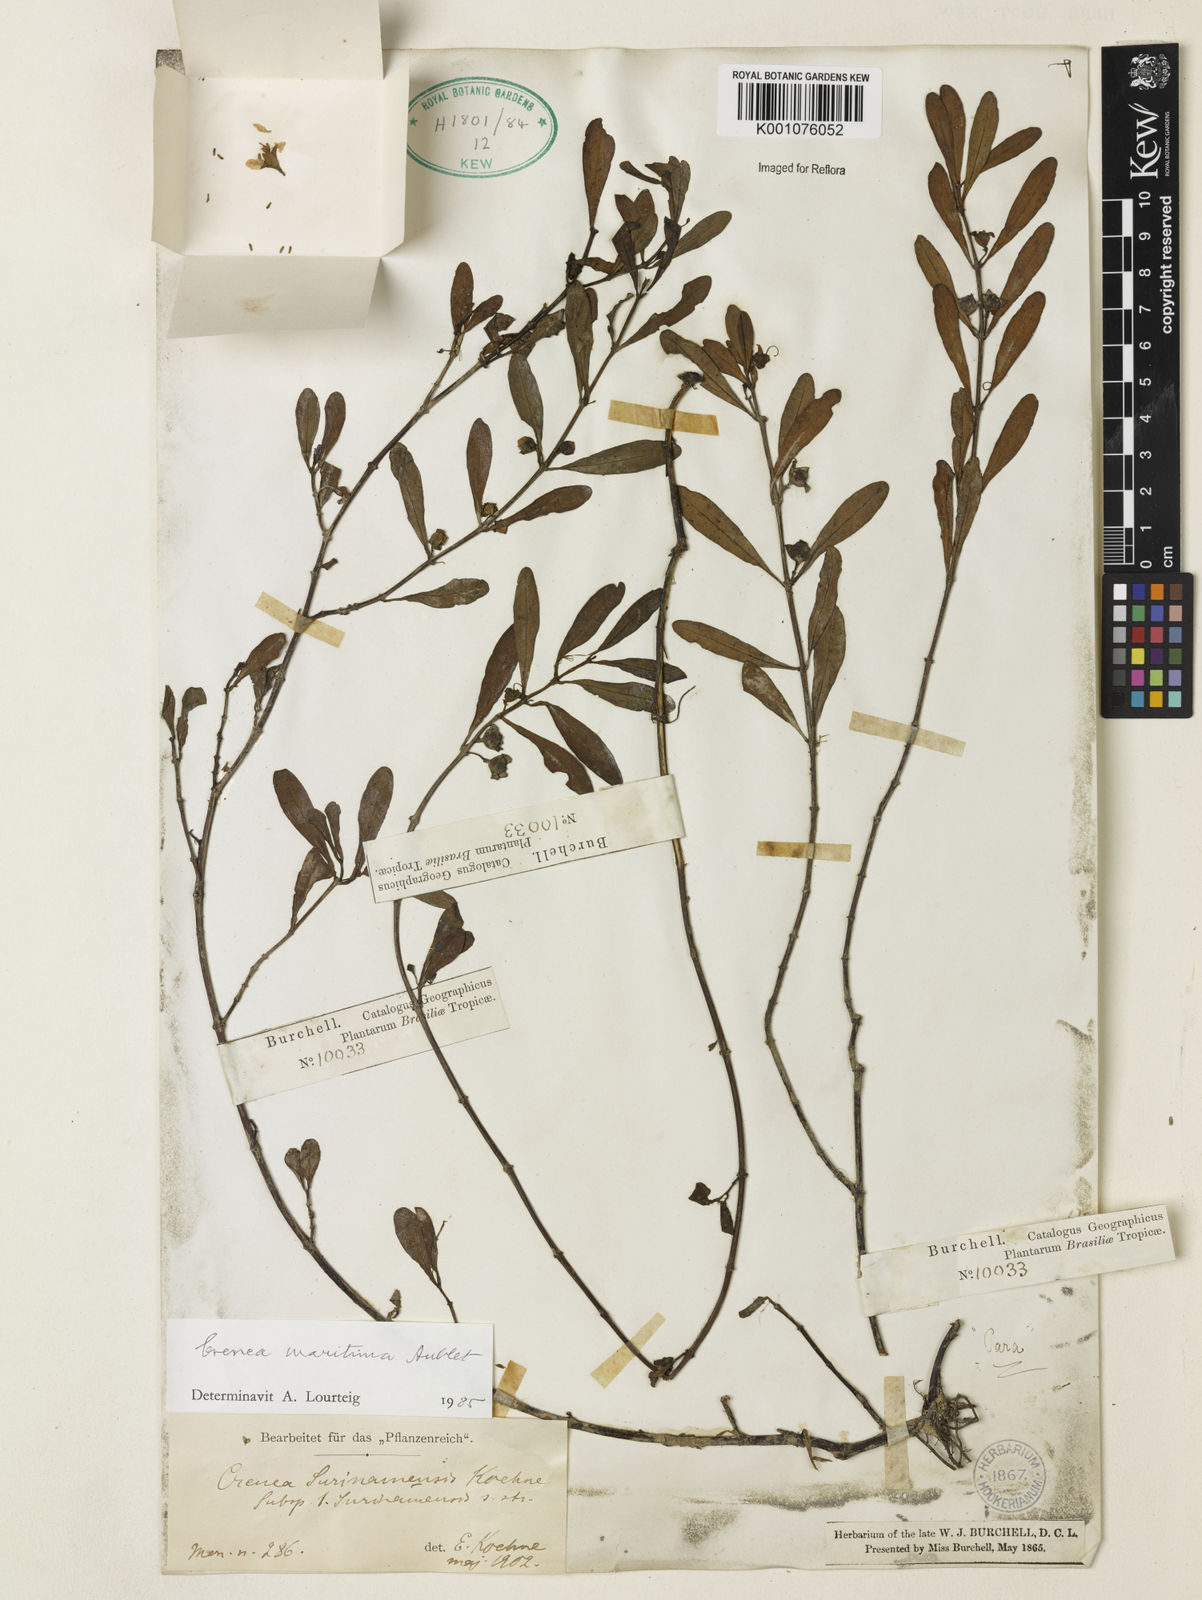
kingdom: Animalia
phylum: Mollusca
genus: Crenea
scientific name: Crenea
